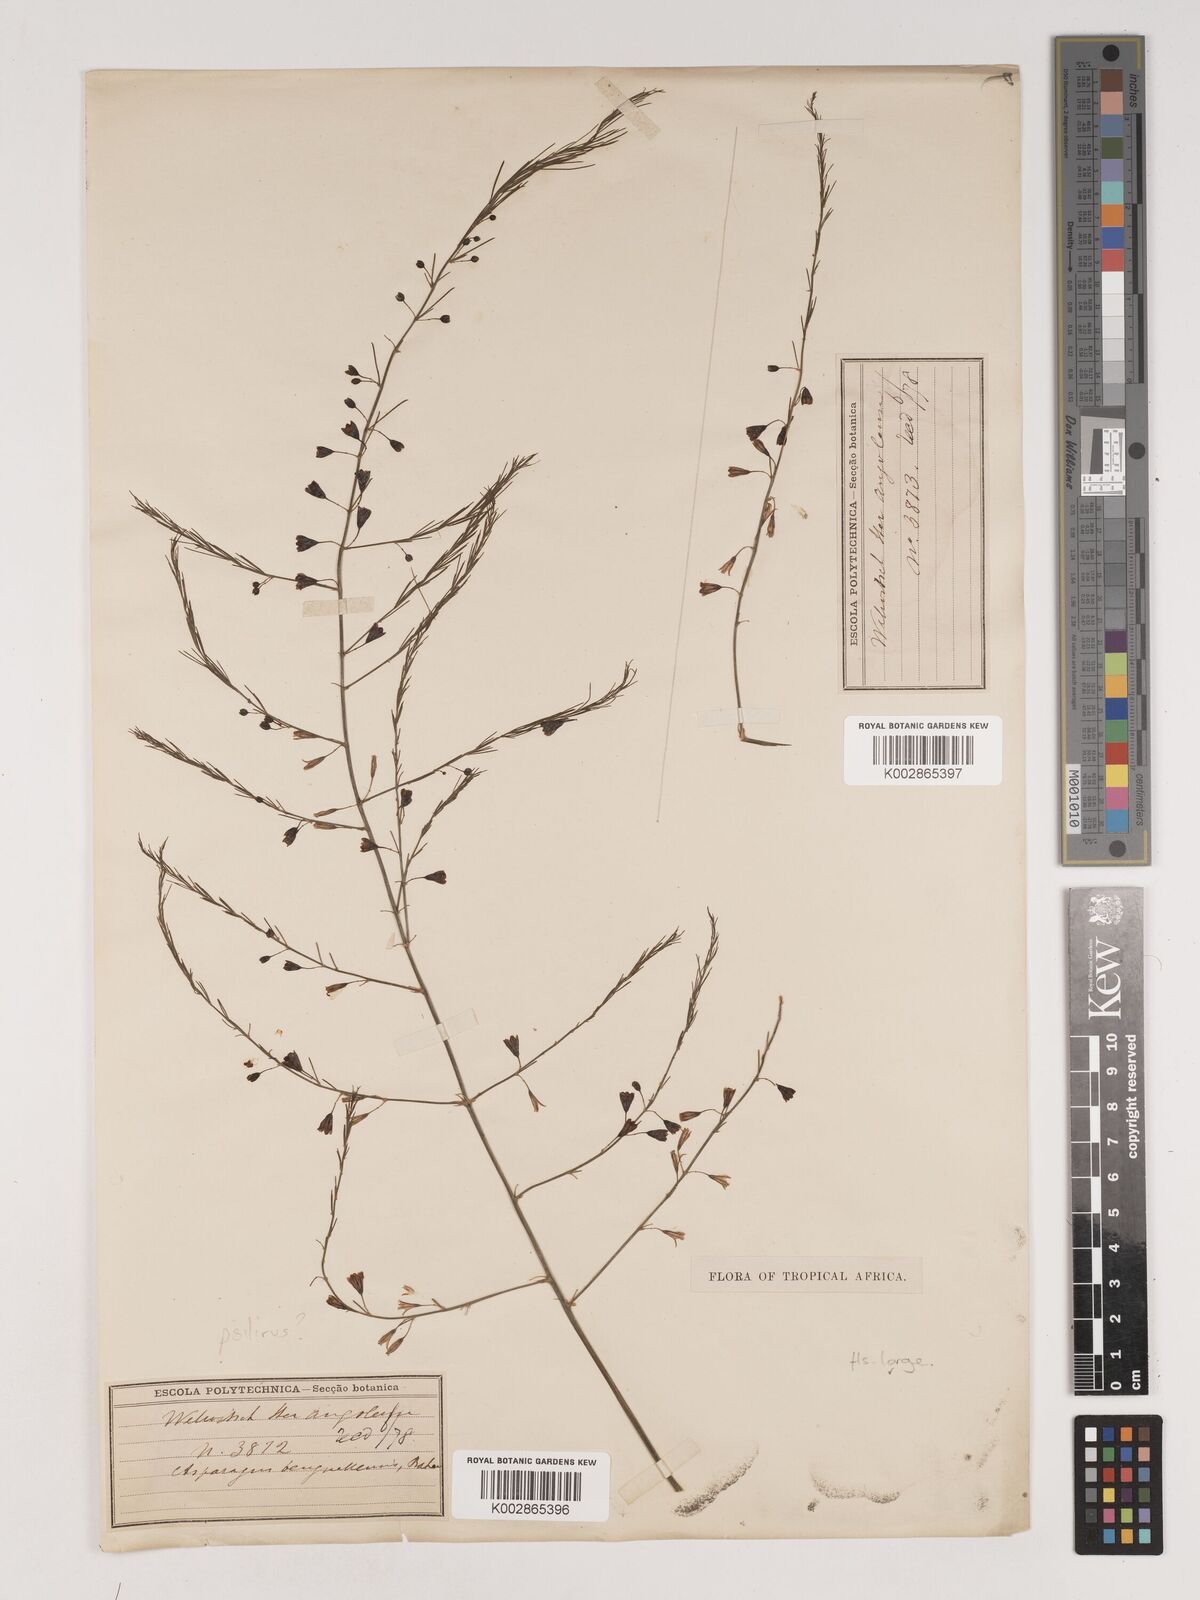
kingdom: Plantae
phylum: Tracheophyta
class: Liliopsida
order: Asparagales
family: Asparagaceae
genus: Asparagus
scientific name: Asparagus benguellensis
